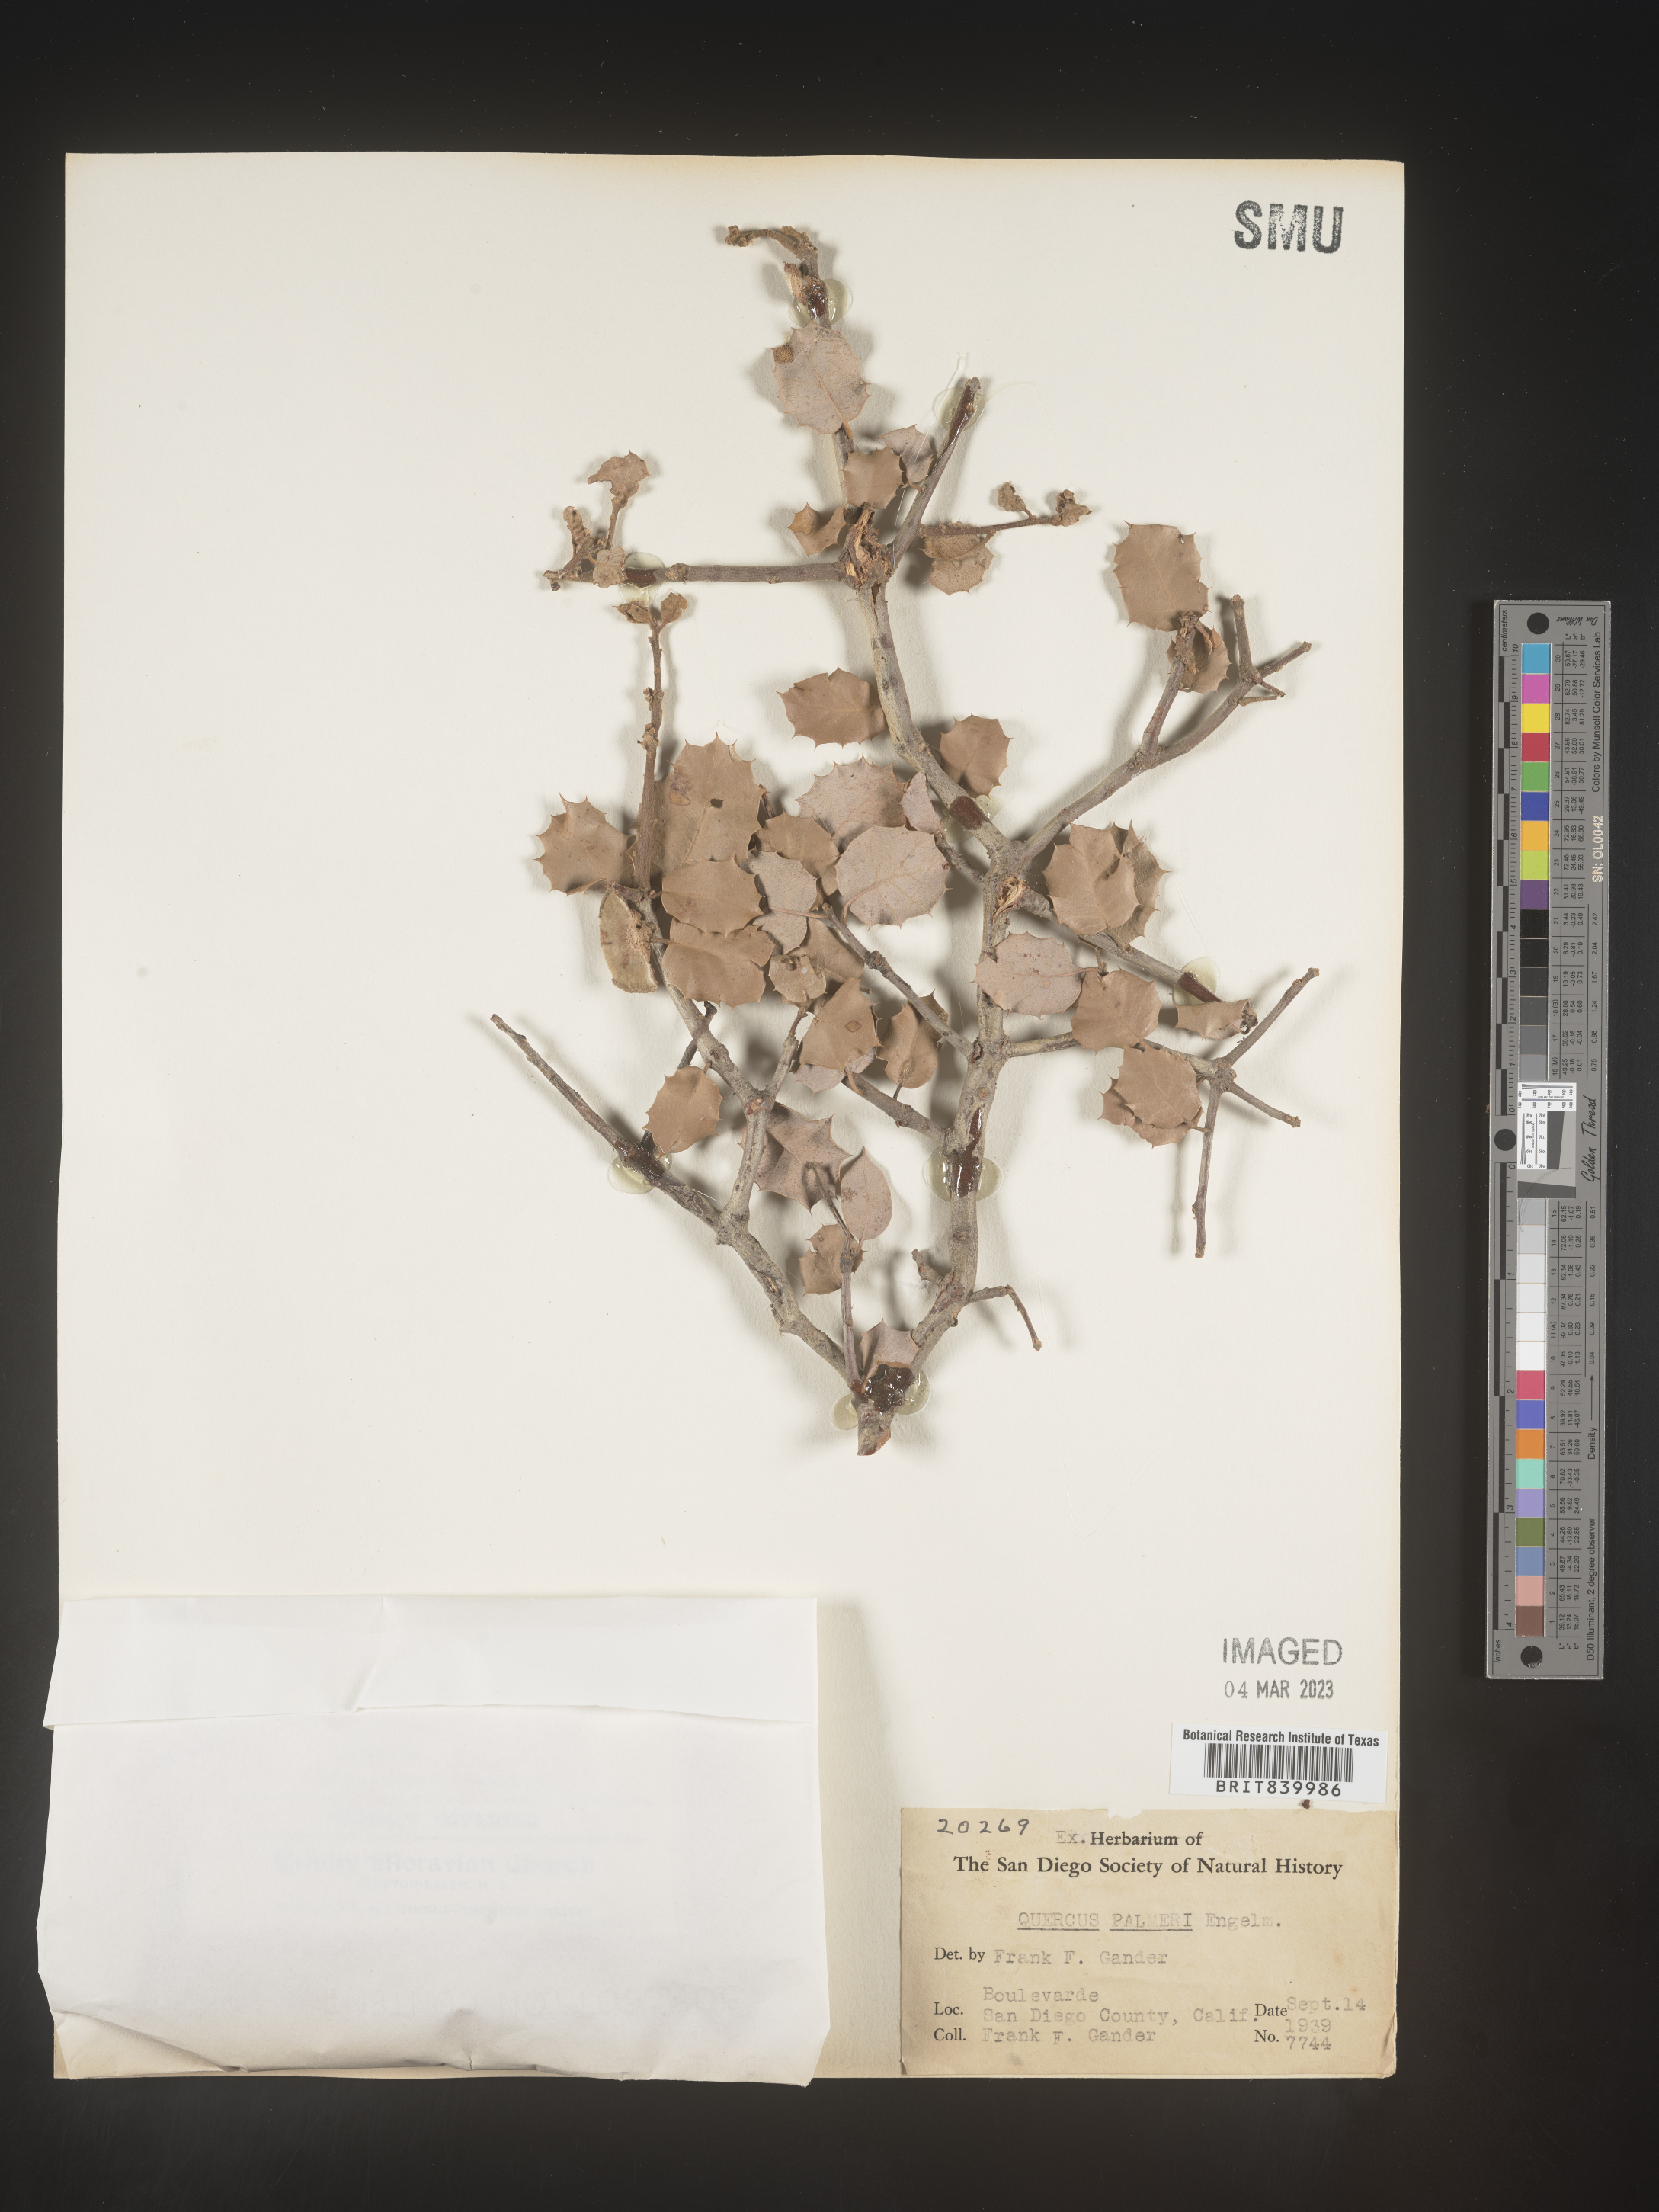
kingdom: Plantae
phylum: Tracheophyta
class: Magnoliopsida
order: Fagales
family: Fagaceae
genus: Quercus
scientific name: Quercus palmeri
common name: Dunn oak
